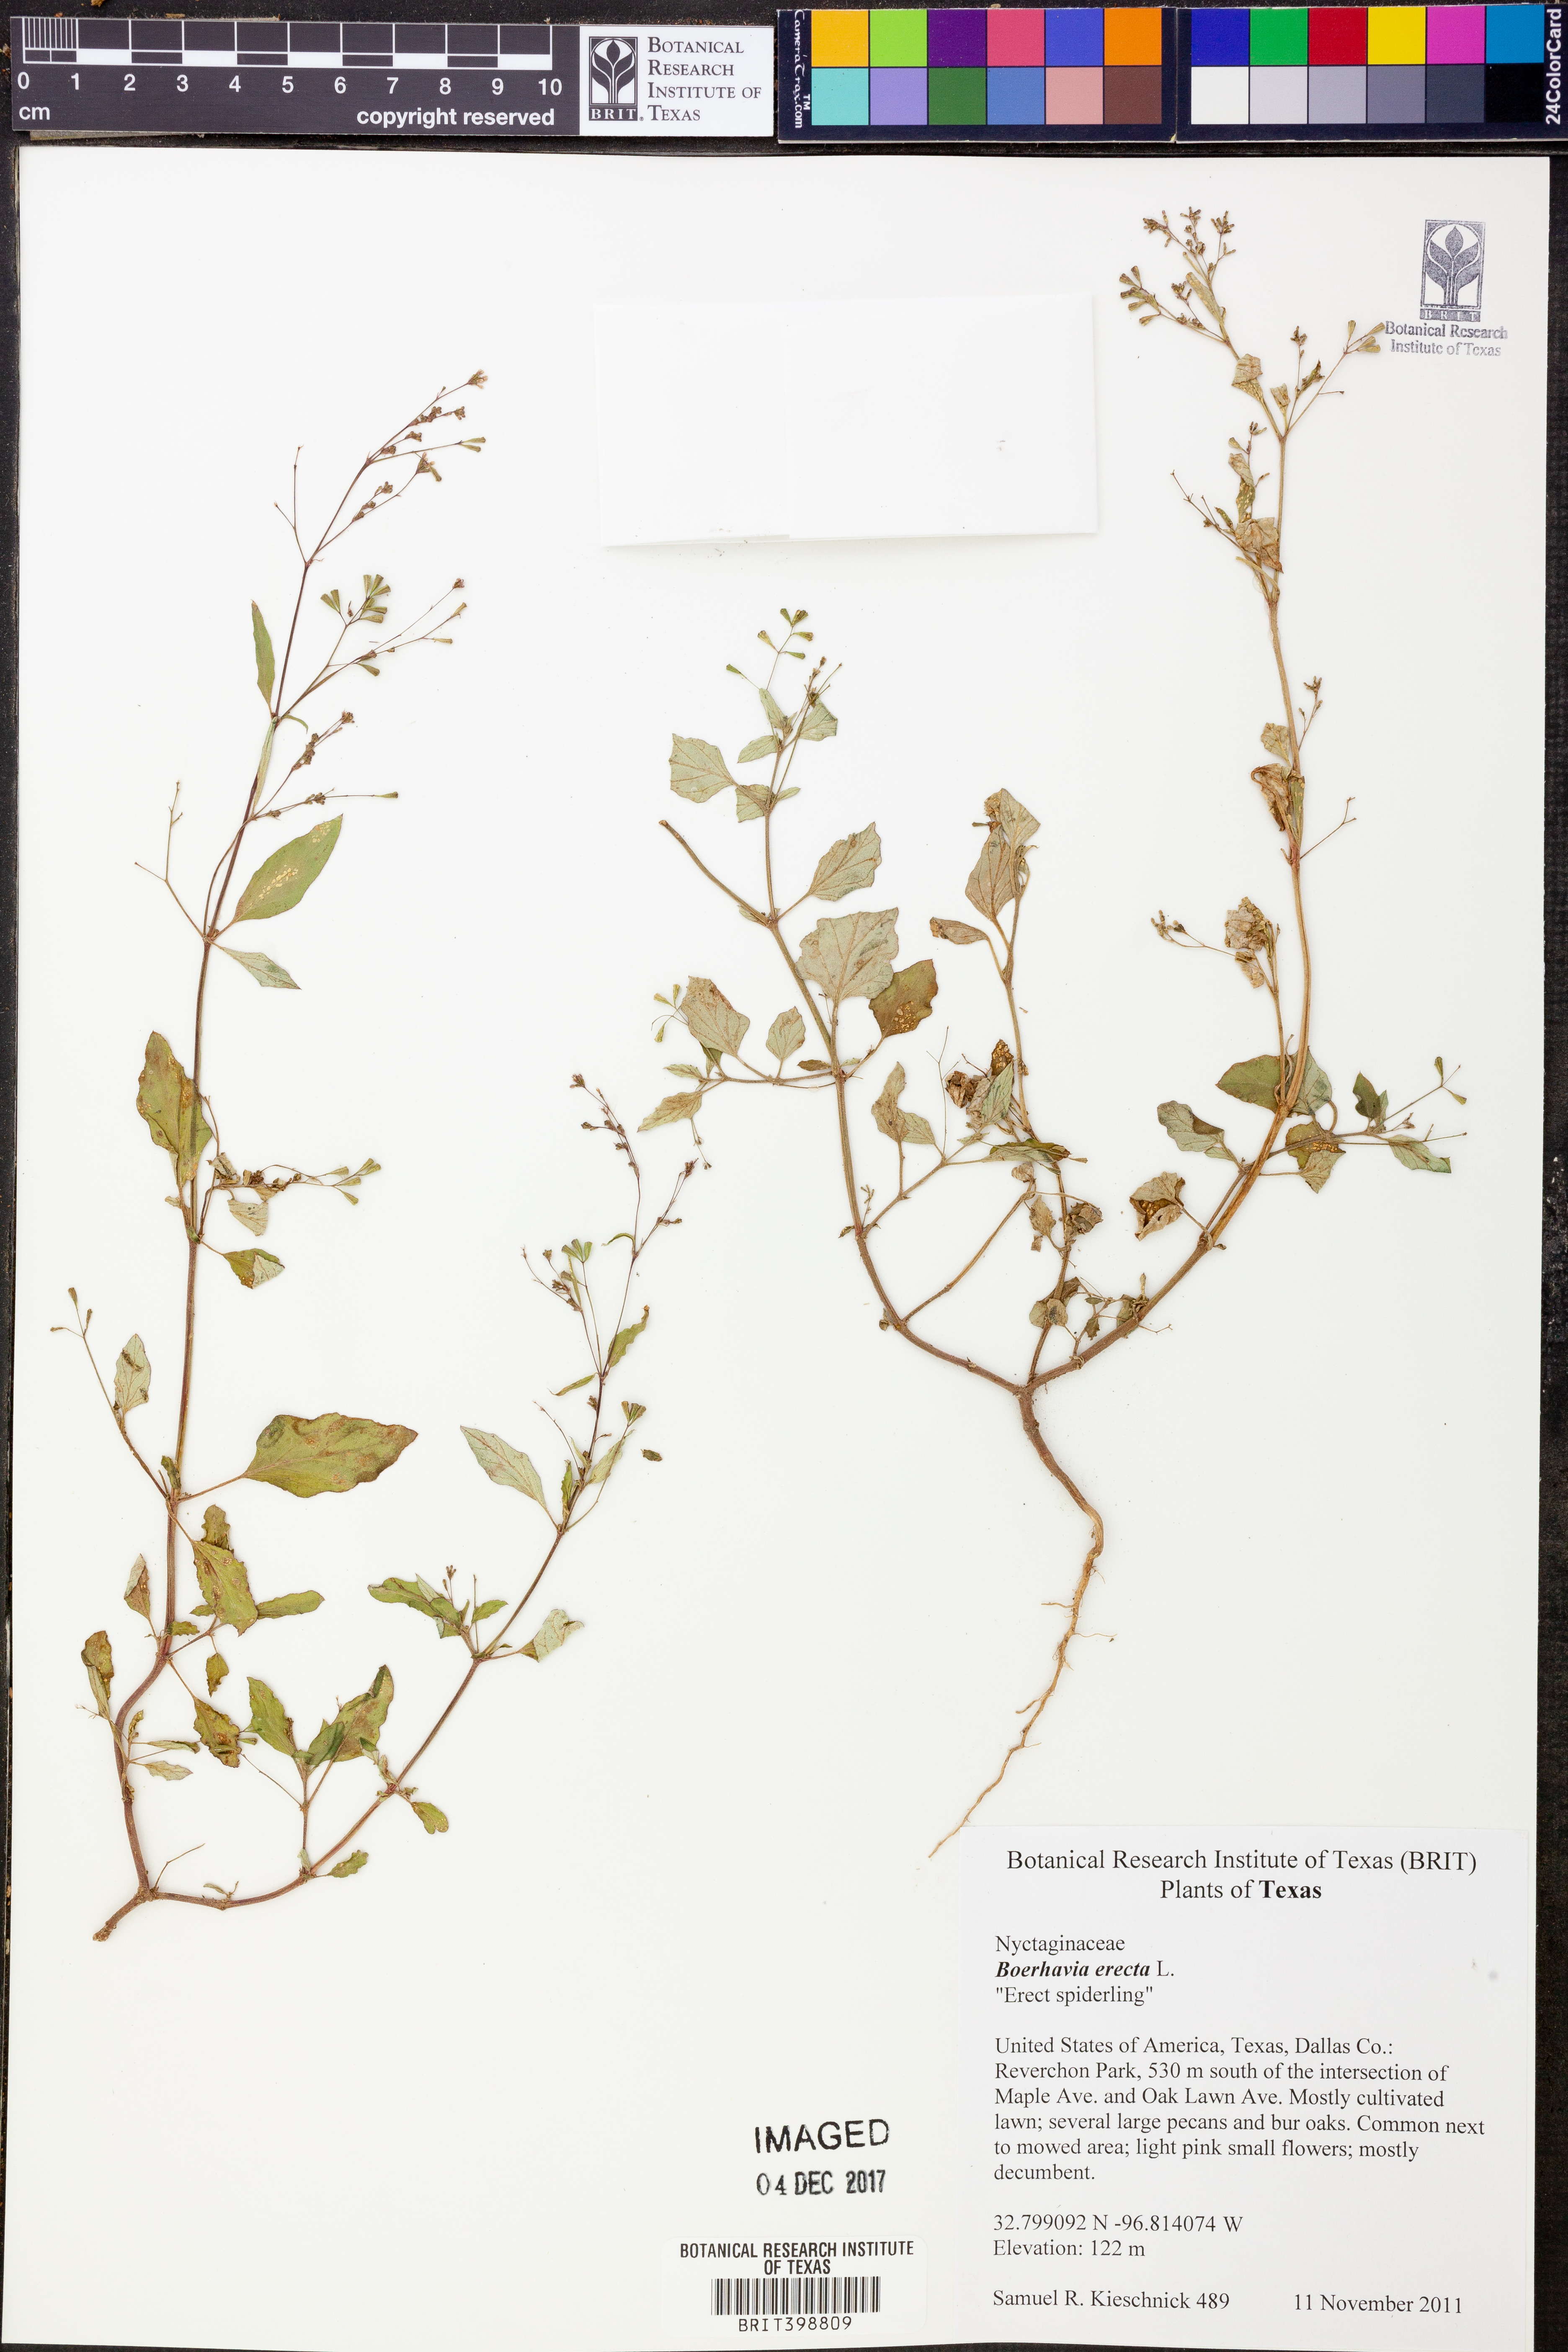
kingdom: Plantae
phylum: Tracheophyta
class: Magnoliopsida
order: Caryophyllales
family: Nyctaginaceae
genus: Boerhavia
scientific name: Boerhavia erecta
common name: Erect spiderling
